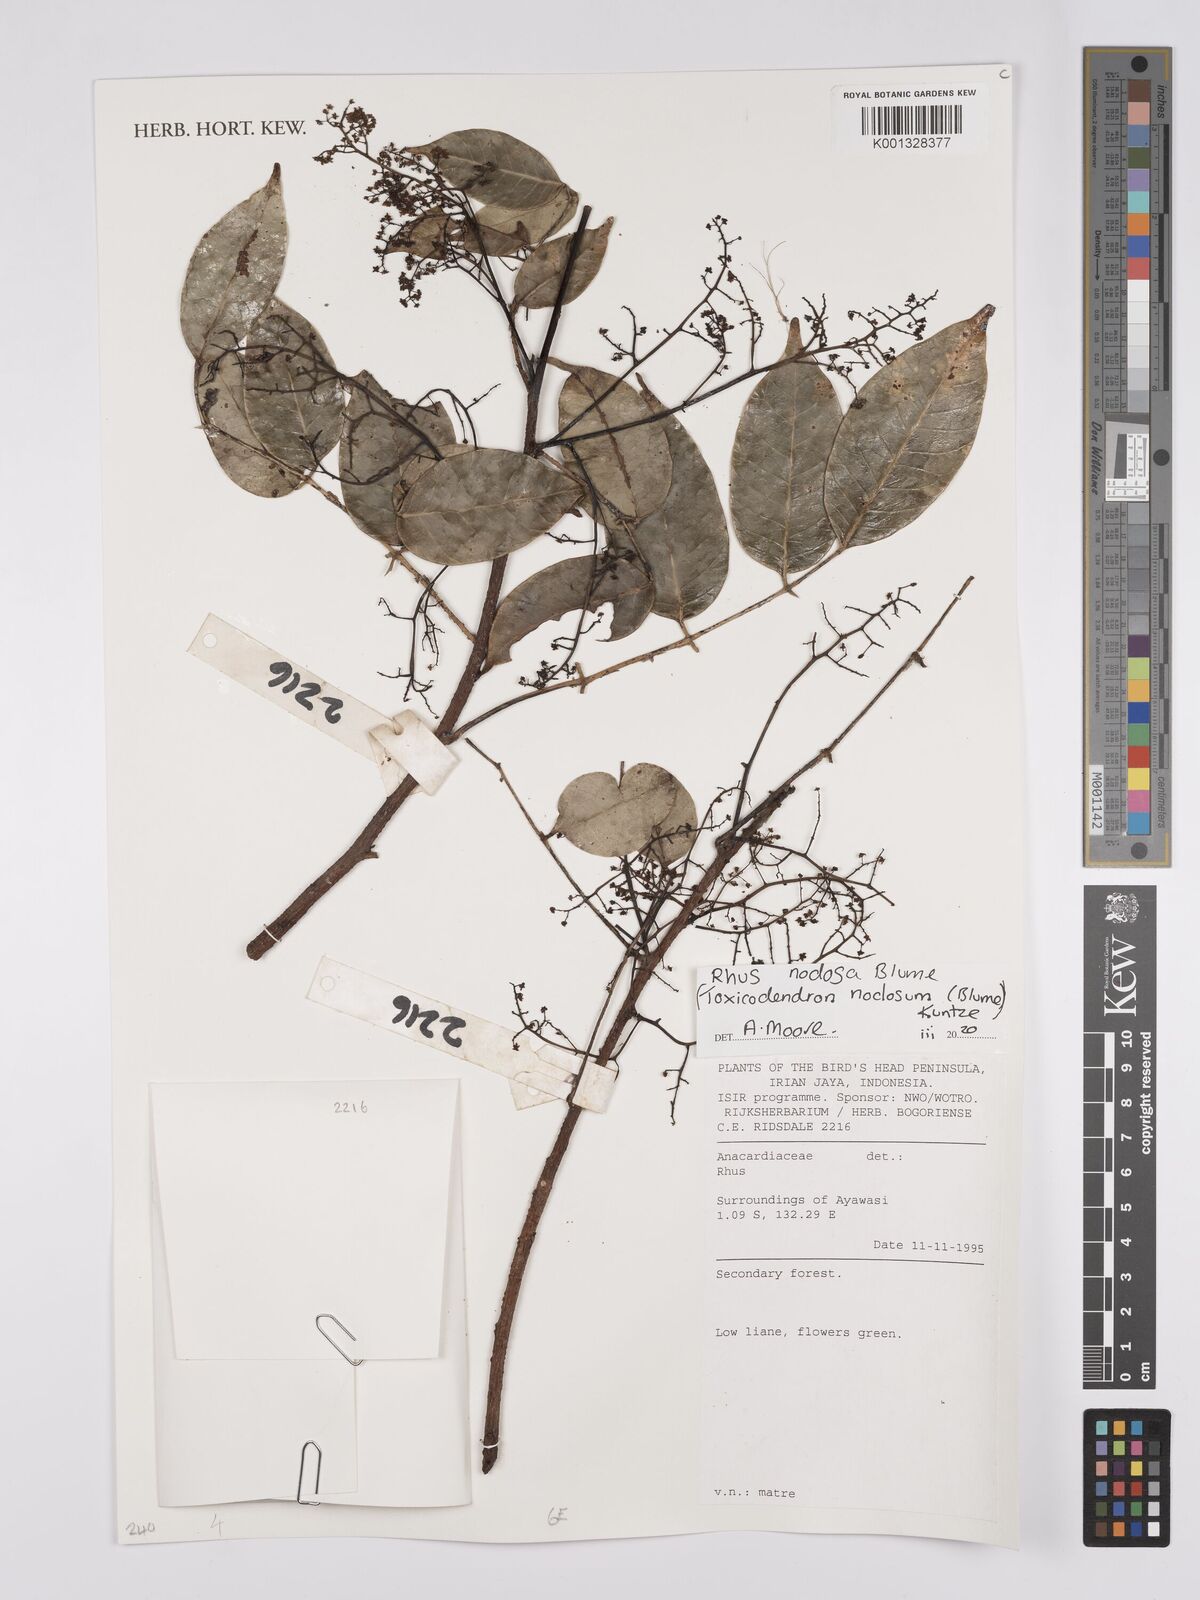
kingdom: Plantae
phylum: Tracheophyta
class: Magnoliopsida
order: Sapindales
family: Anacardiaceae
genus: Toxicodendron
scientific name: Toxicodendron nodosum
